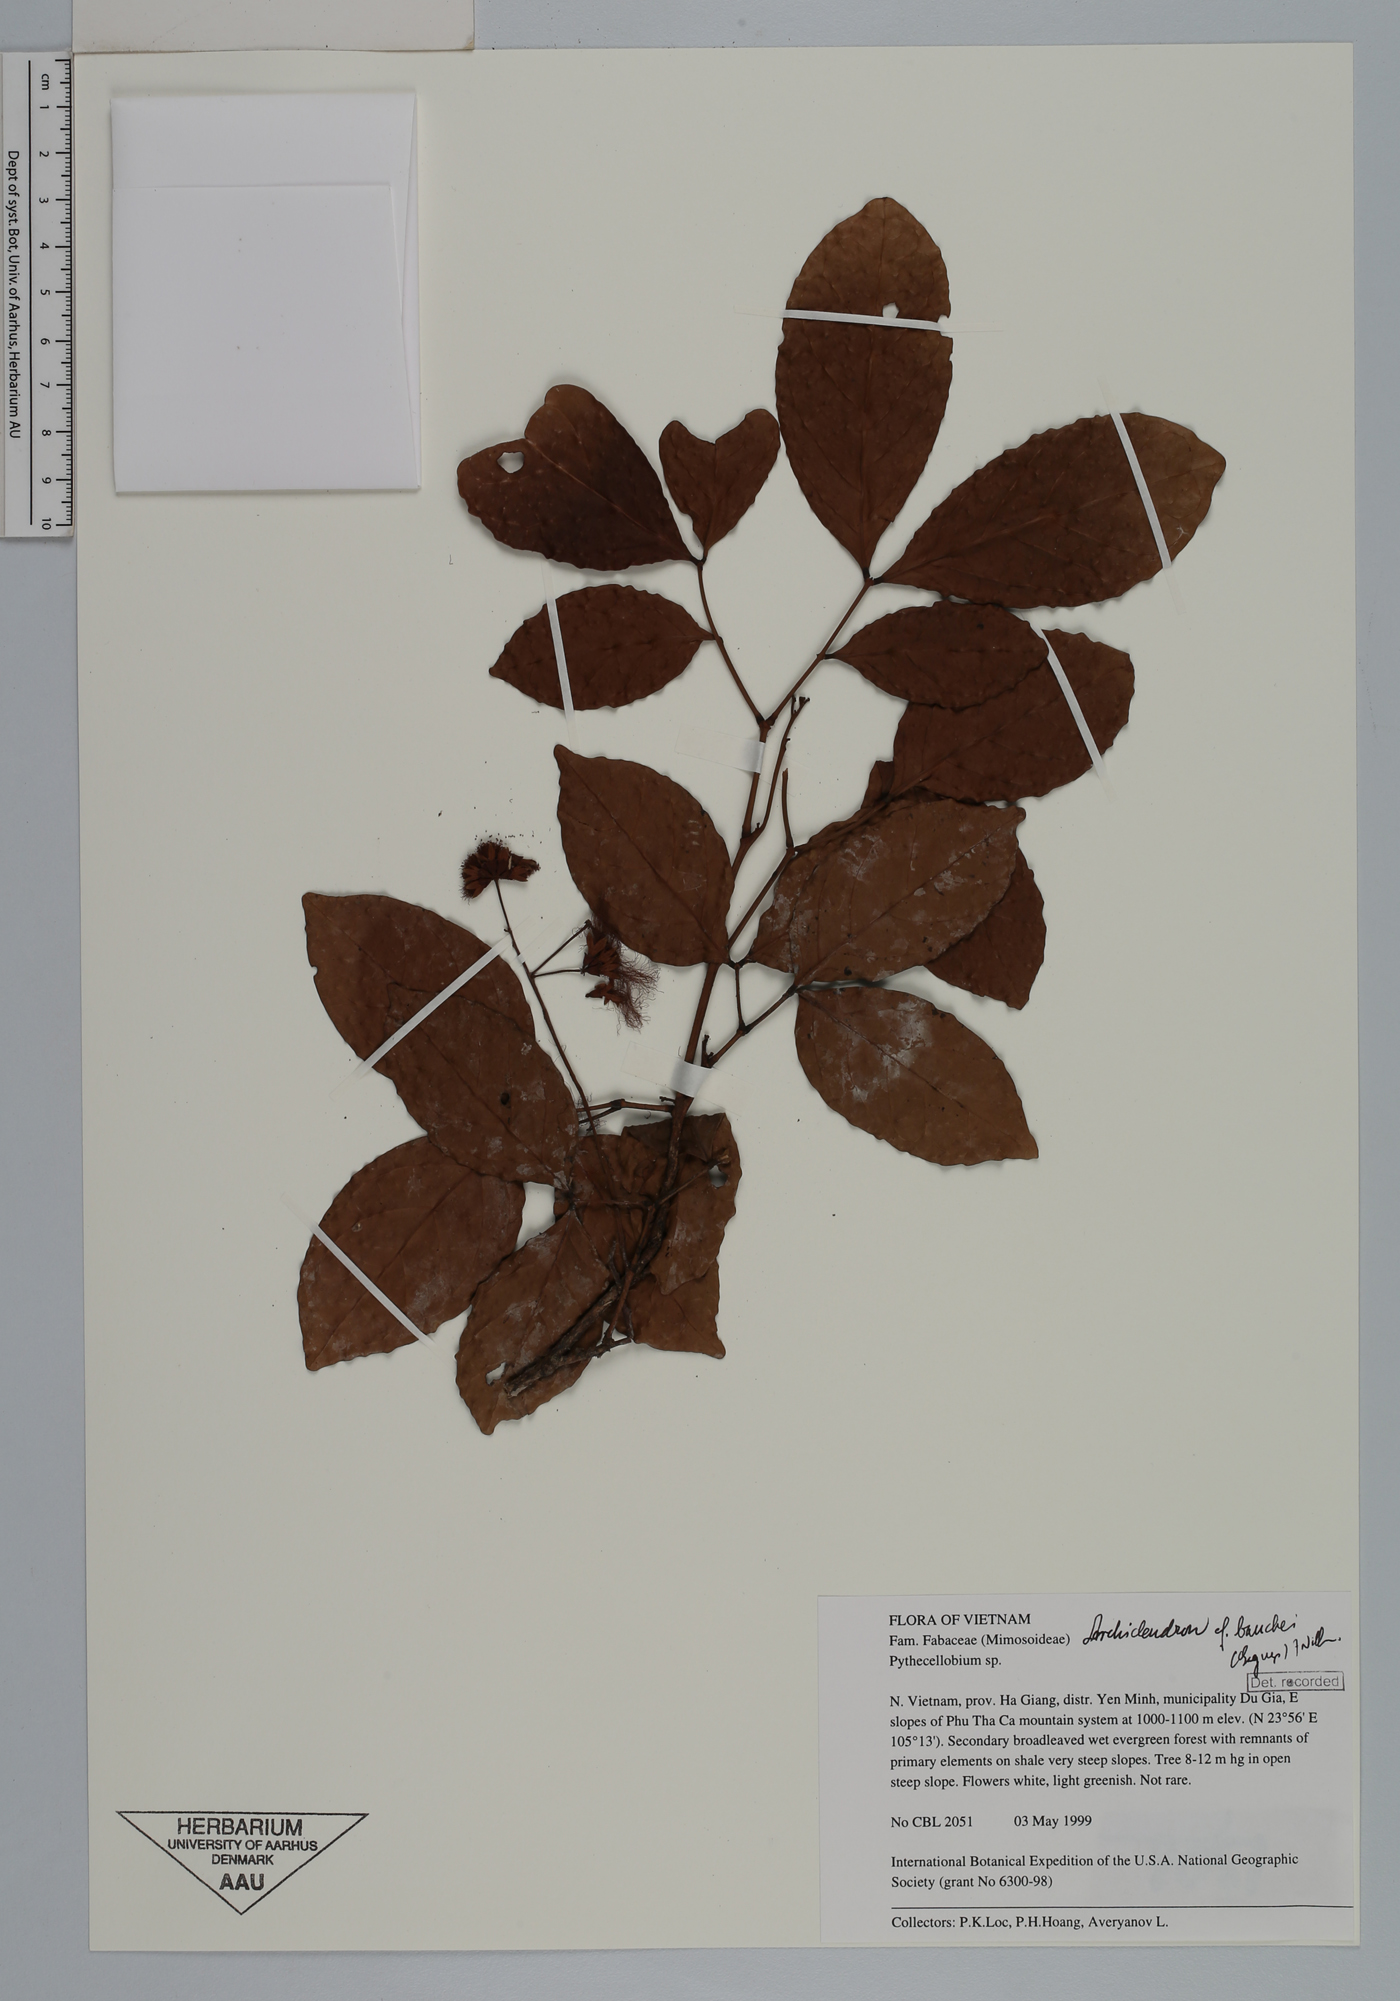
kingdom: Plantae
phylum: Tracheophyta
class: Magnoliopsida
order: Fabales
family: Fabaceae
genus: Archidendron
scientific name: Archidendron bauchei
